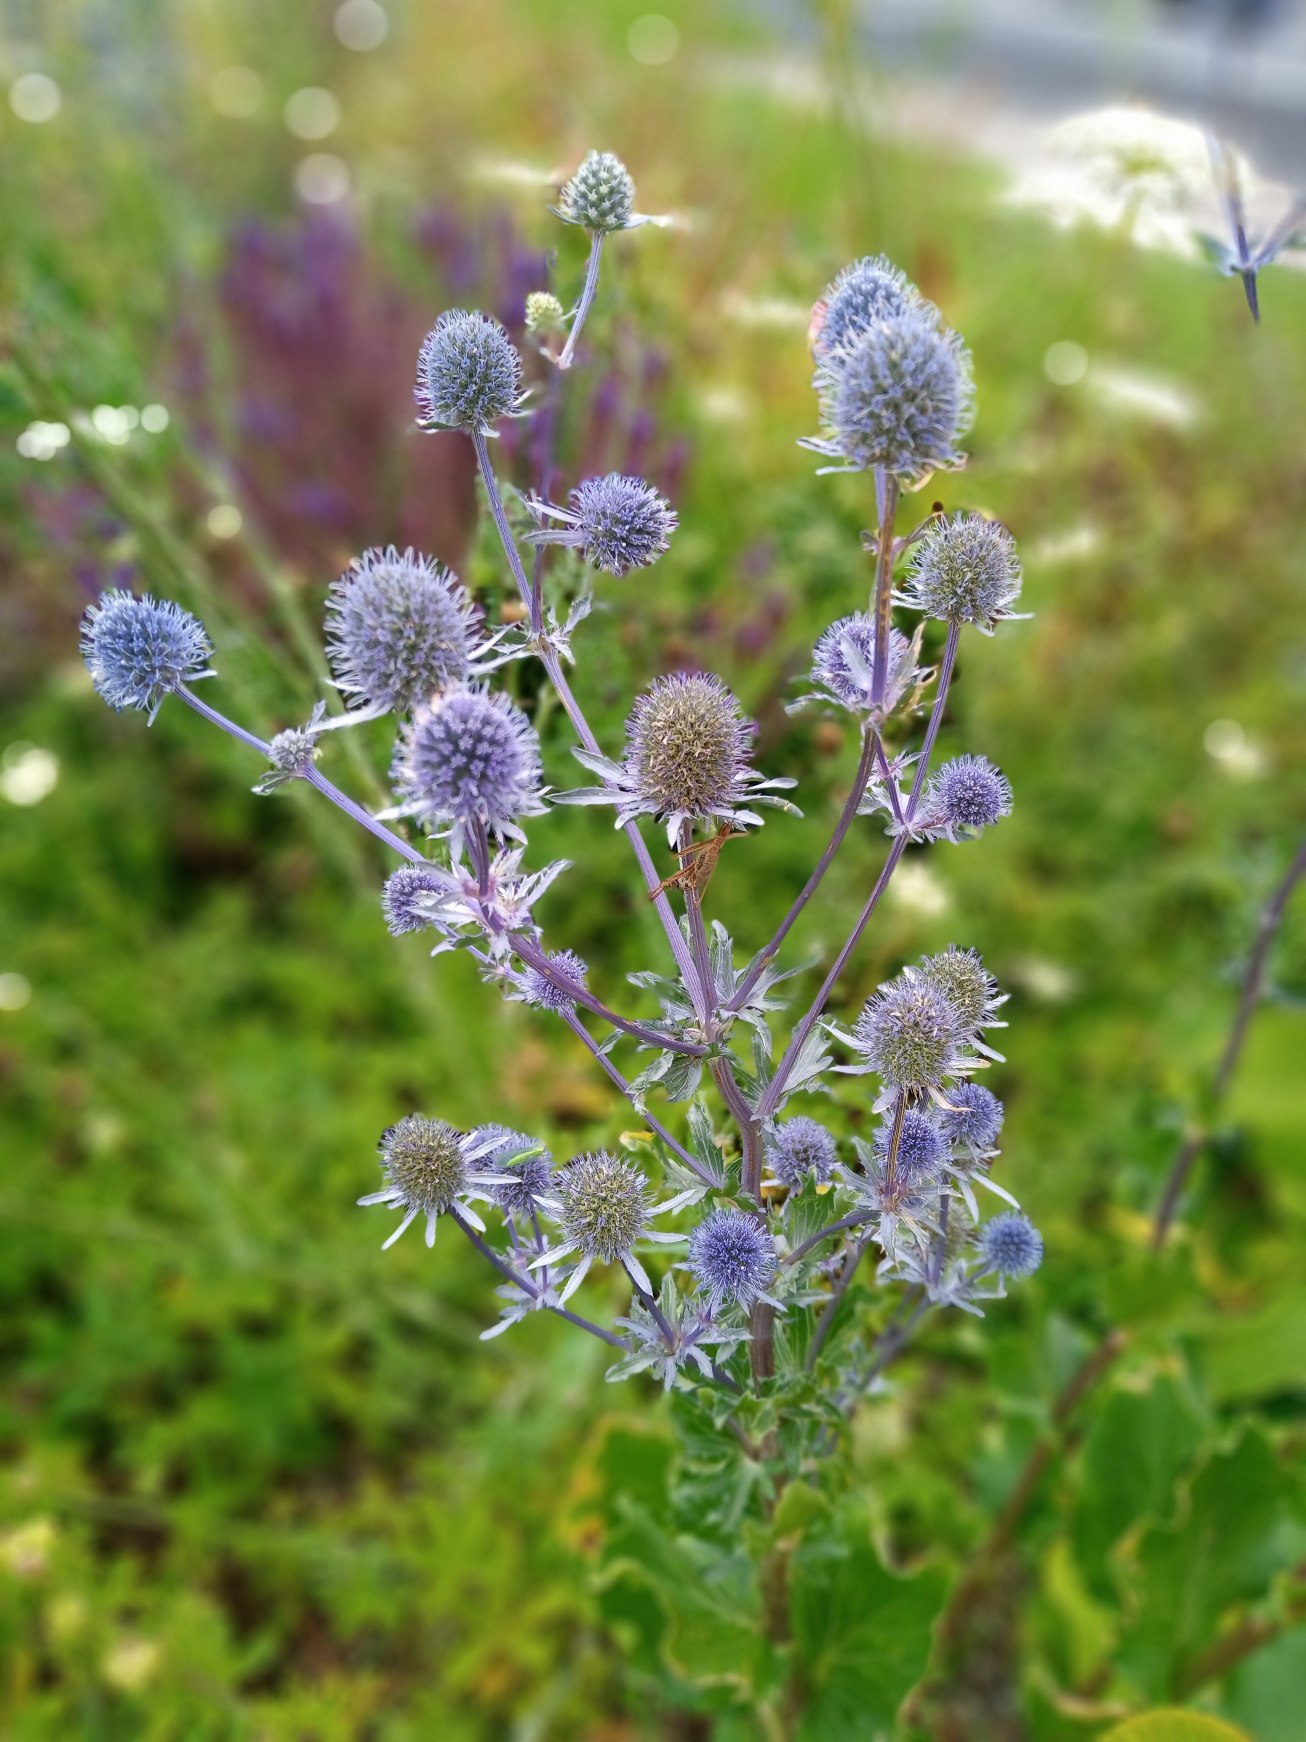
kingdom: Plantae
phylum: Tracheophyta
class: Magnoliopsida
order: Apiales
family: Apiaceae
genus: Eryngium
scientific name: Eryngium planum
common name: Russisk mandstro
